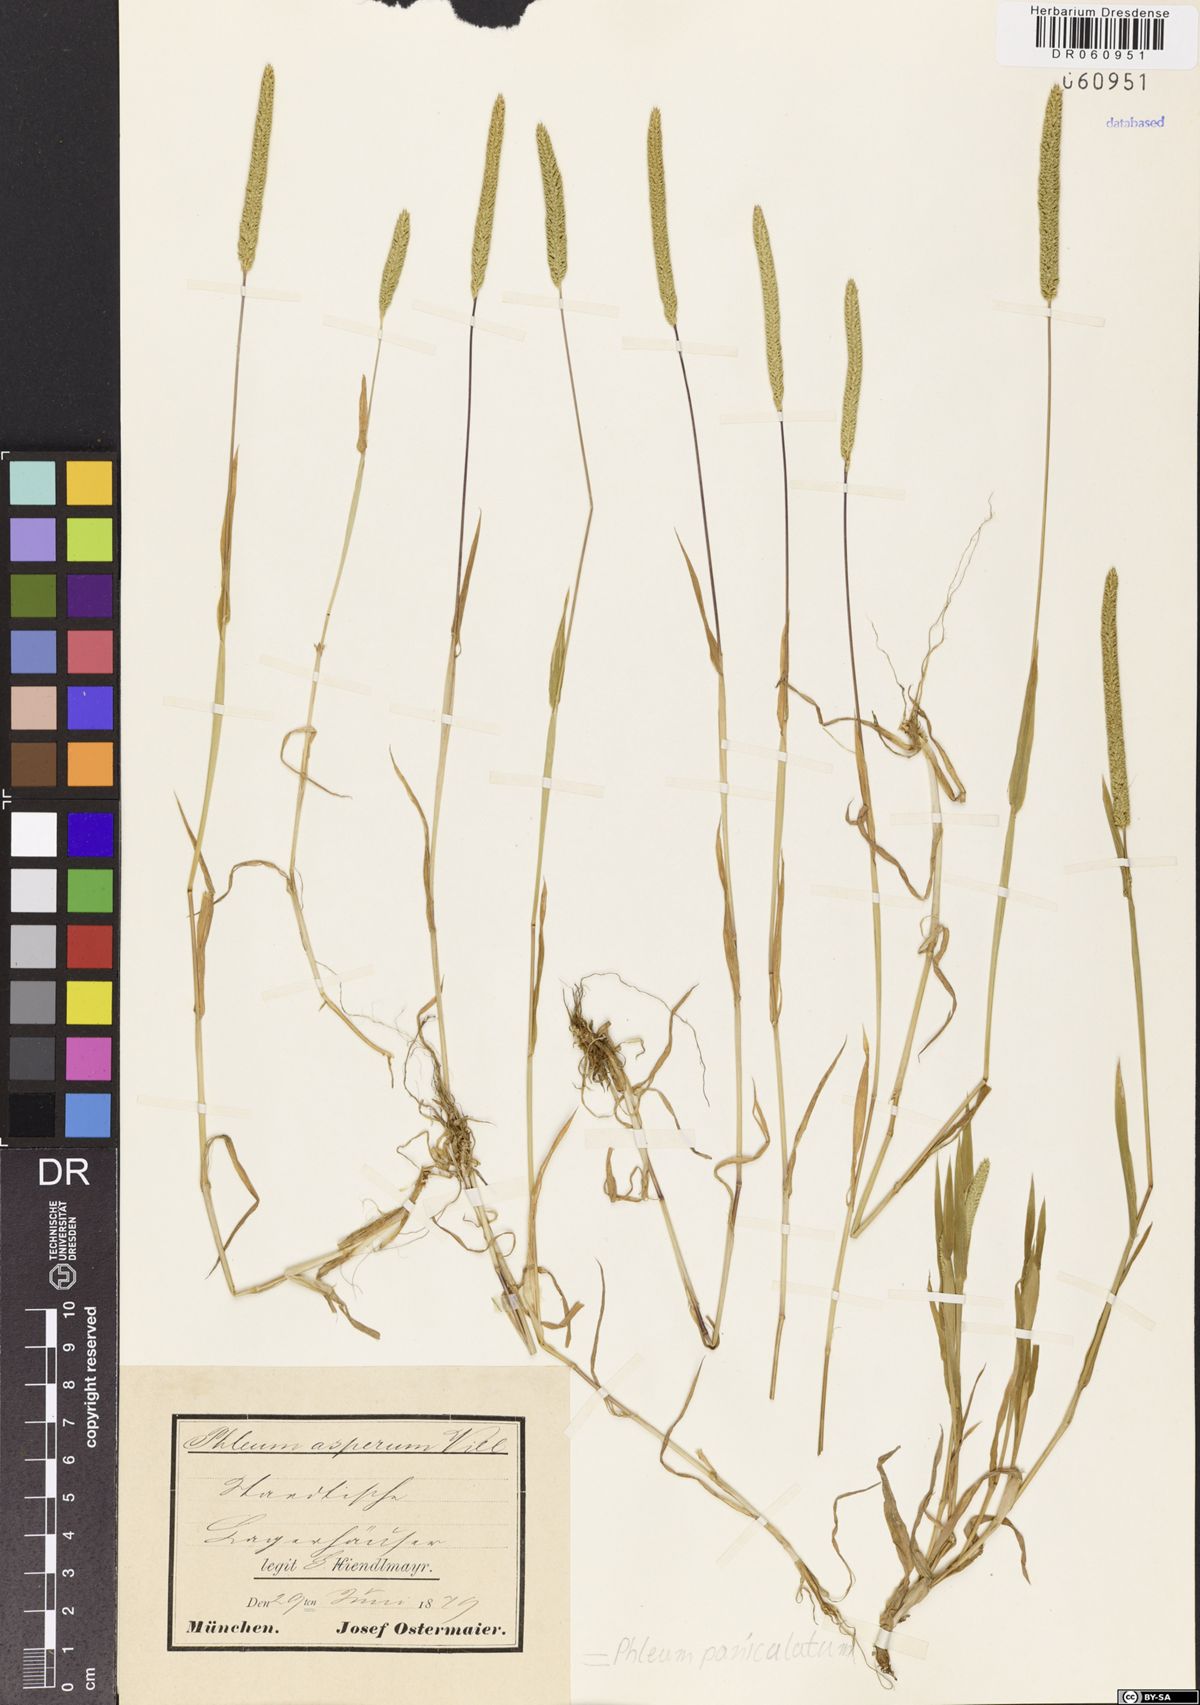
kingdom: Plantae
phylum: Tracheophyta
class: Liliopsida
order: Poales
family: Poaceae
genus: Phleum
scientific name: Phleum paniculatum
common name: British timothy
